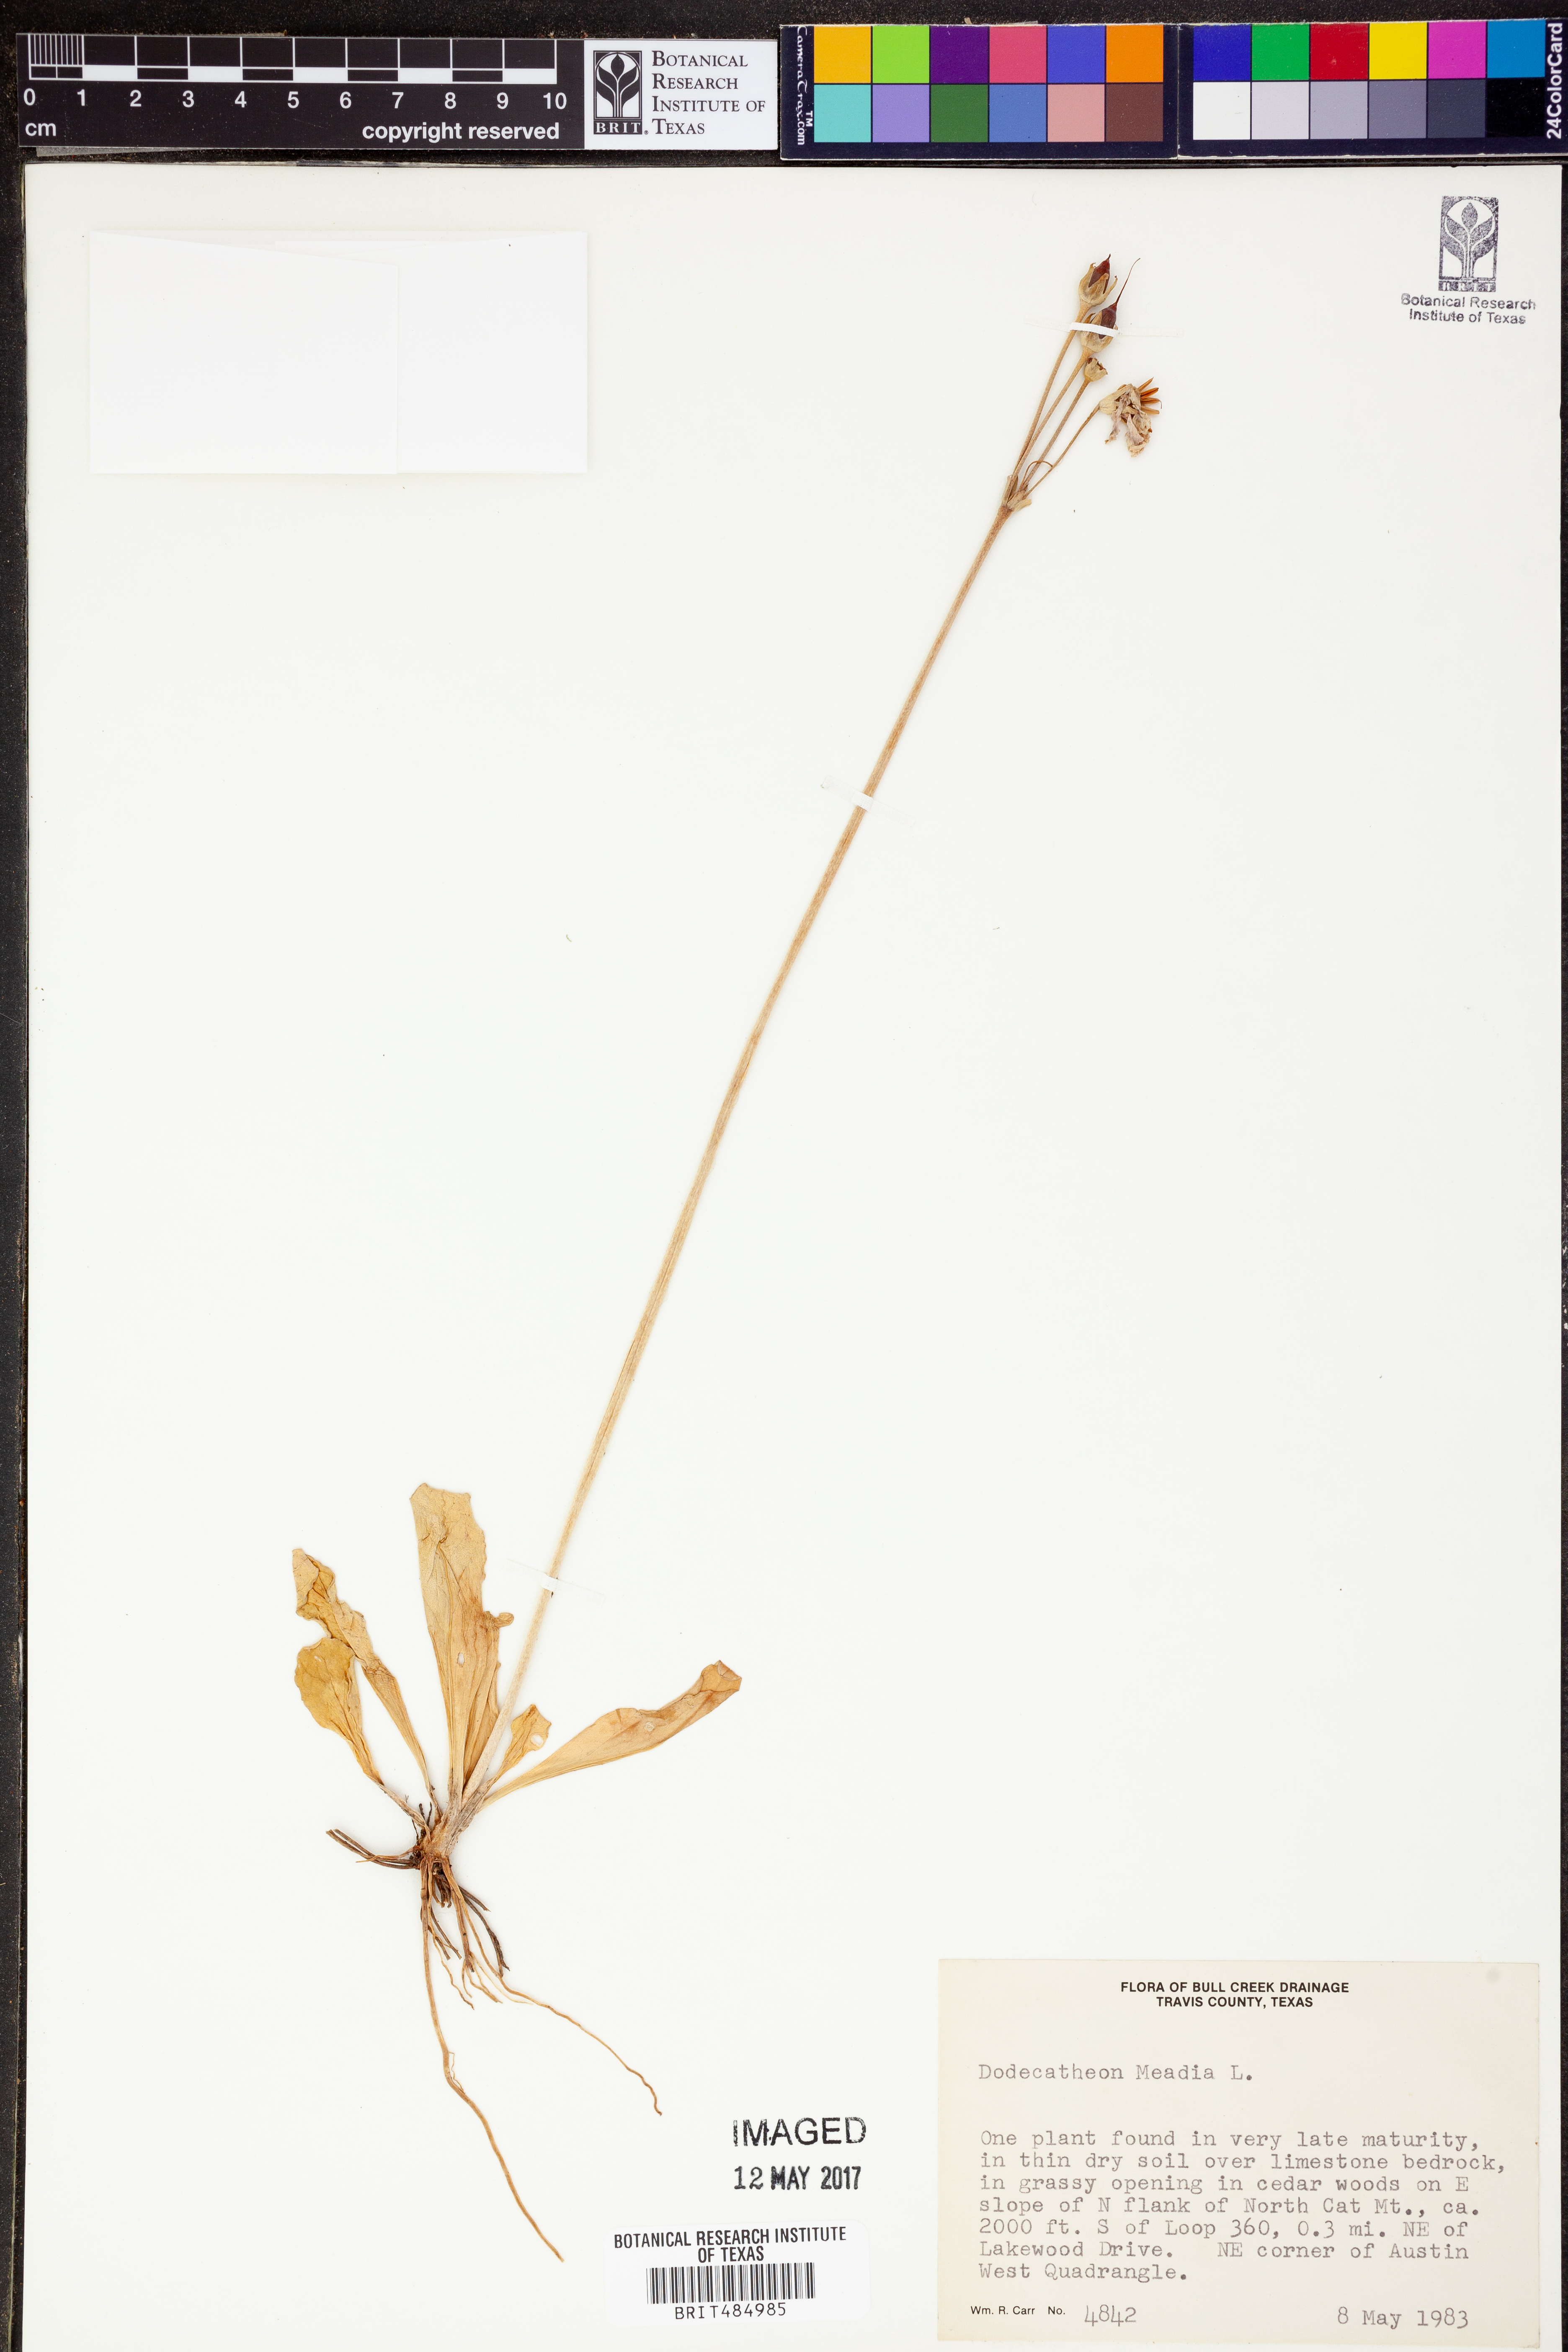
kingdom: Plantae
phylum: Tracheophyta
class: Magnoliopsida
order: Ericales
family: Primulaceae
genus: Dodecatheon
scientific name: Dodecatheon meadia
